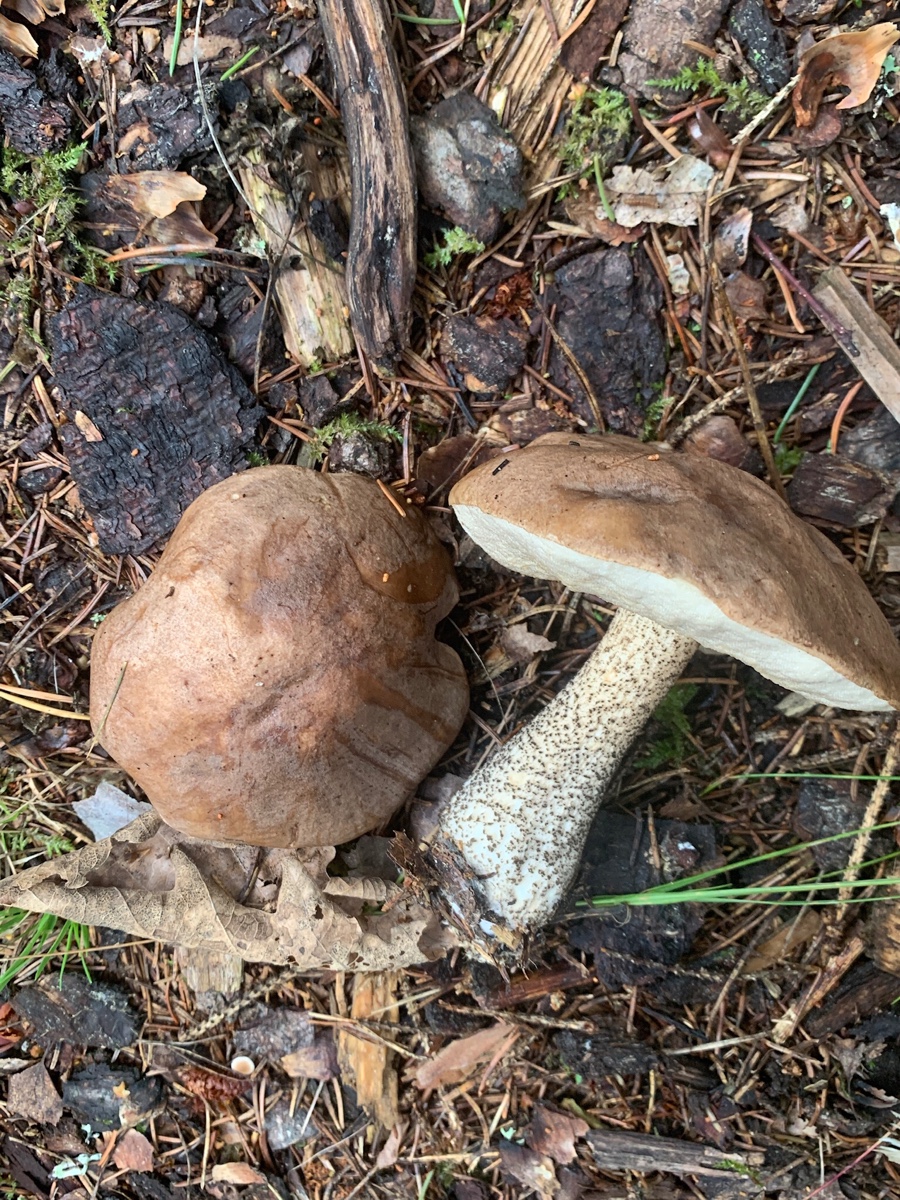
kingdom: Fungi
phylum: Basidiomycota
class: Agaricomycetes
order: Boletales
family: Boletaceae
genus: Leccinum
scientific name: Leccinum scabrum
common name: brun skælrørhat
